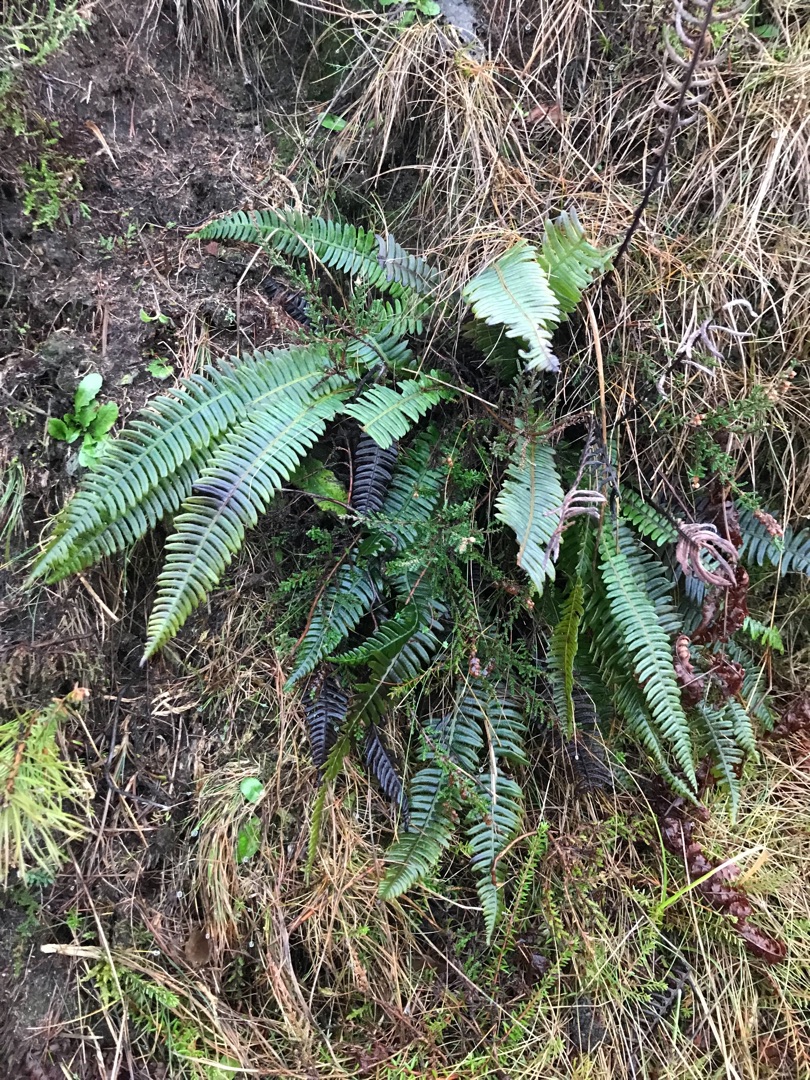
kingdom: Plantae
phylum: Tracheophyta
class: Polypodiopsida
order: Polypodiales
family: Blechnaceae
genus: Struthiopteris
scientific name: Struthiopteris spicant
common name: Kambregne
